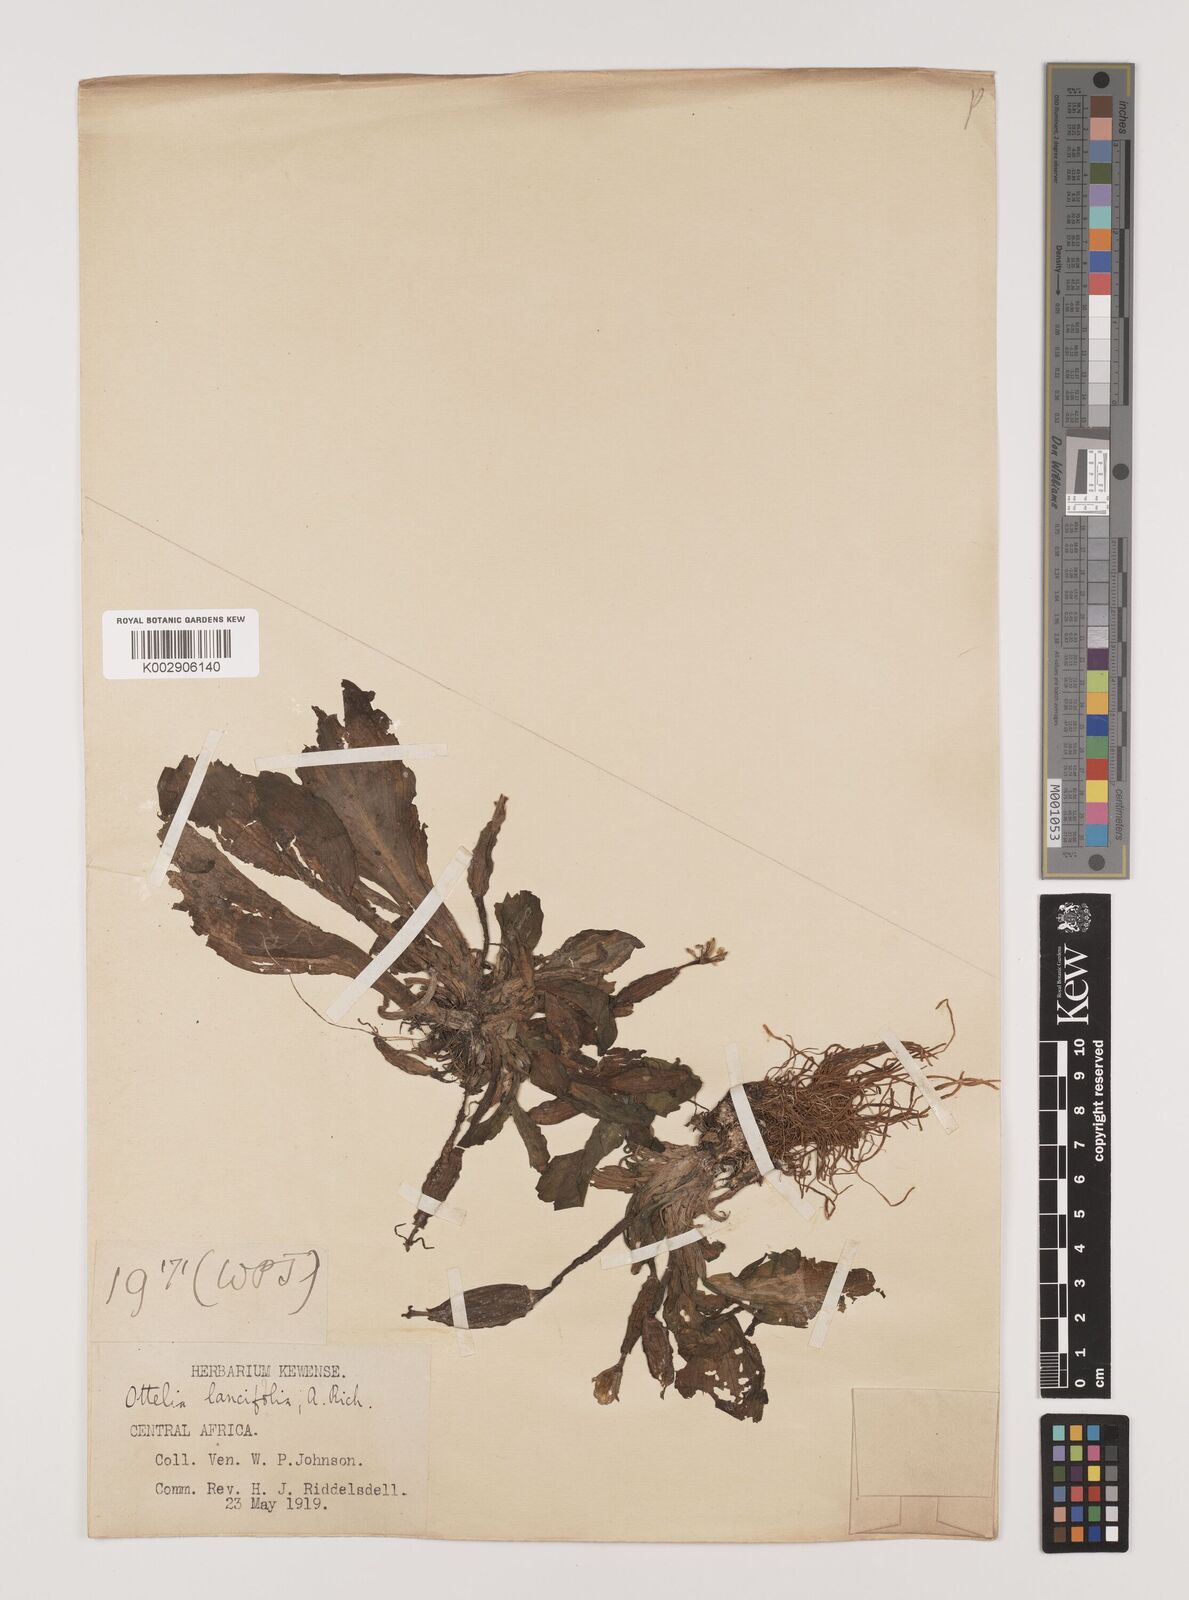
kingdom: Plantae
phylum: Tracheophyta
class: Liliopsida
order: Alismatales
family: Hydrocharitaceae
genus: Ottelia
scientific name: Ottelia ulvifolia
